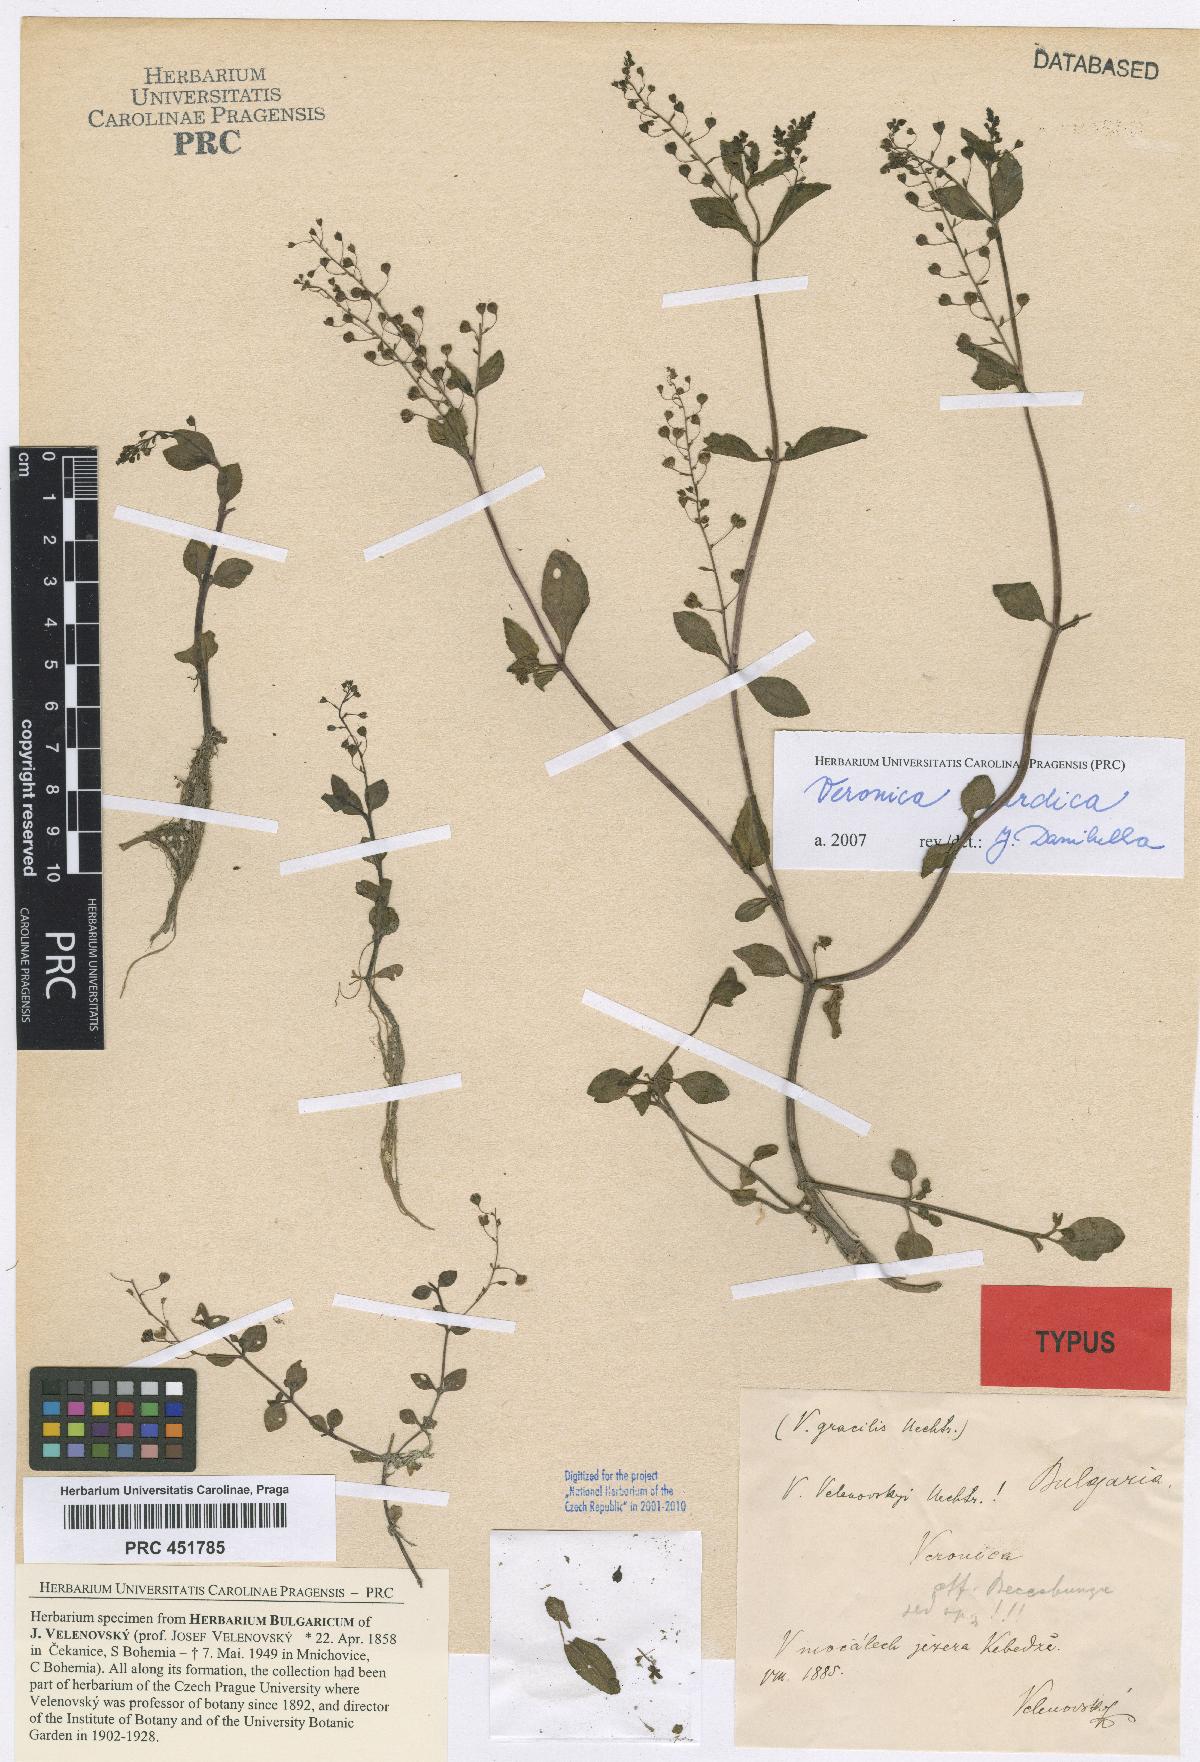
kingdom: Plantae
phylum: Tracheophyta
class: Magnoliopsida
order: Lamiales
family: Plantaginaceae
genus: Veronica
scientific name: Veronica scardica
